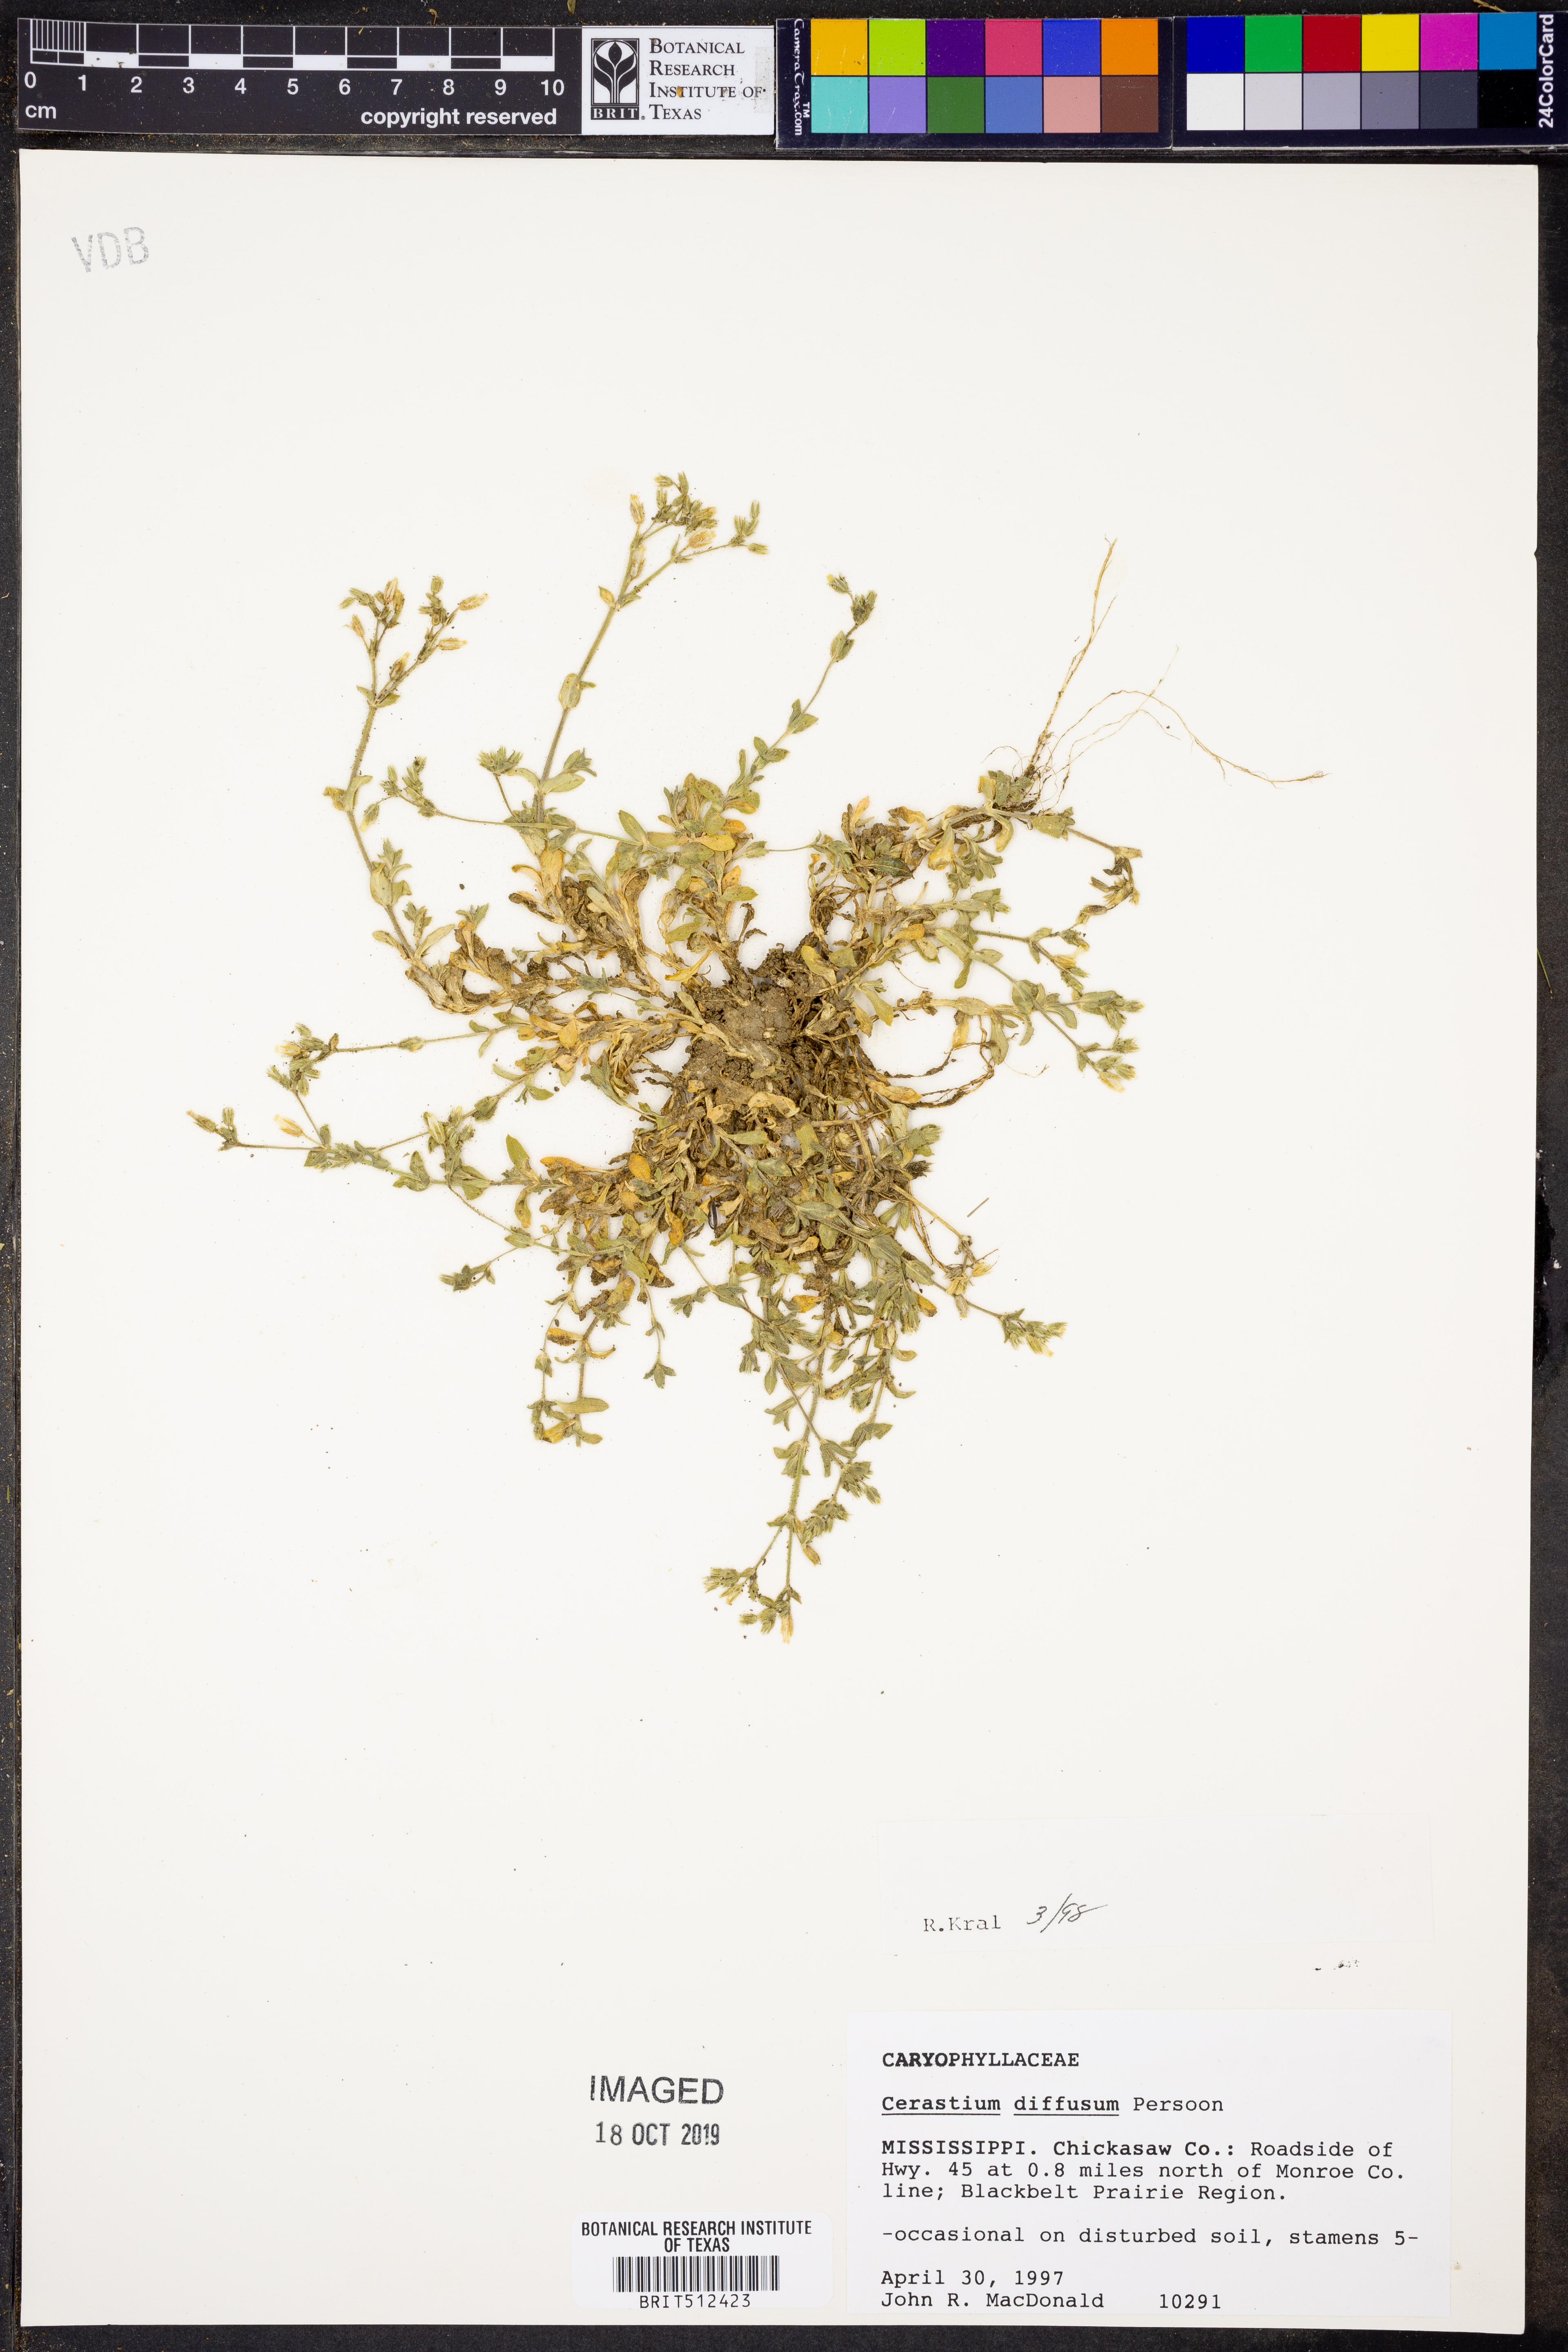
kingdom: Plantae
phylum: Tracheophyta
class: Magnoliopsida
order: Caryophyllales
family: Caryophyllaceae
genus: Cerastium
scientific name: Cerastium diffusum
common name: Fourstamen chickweed
